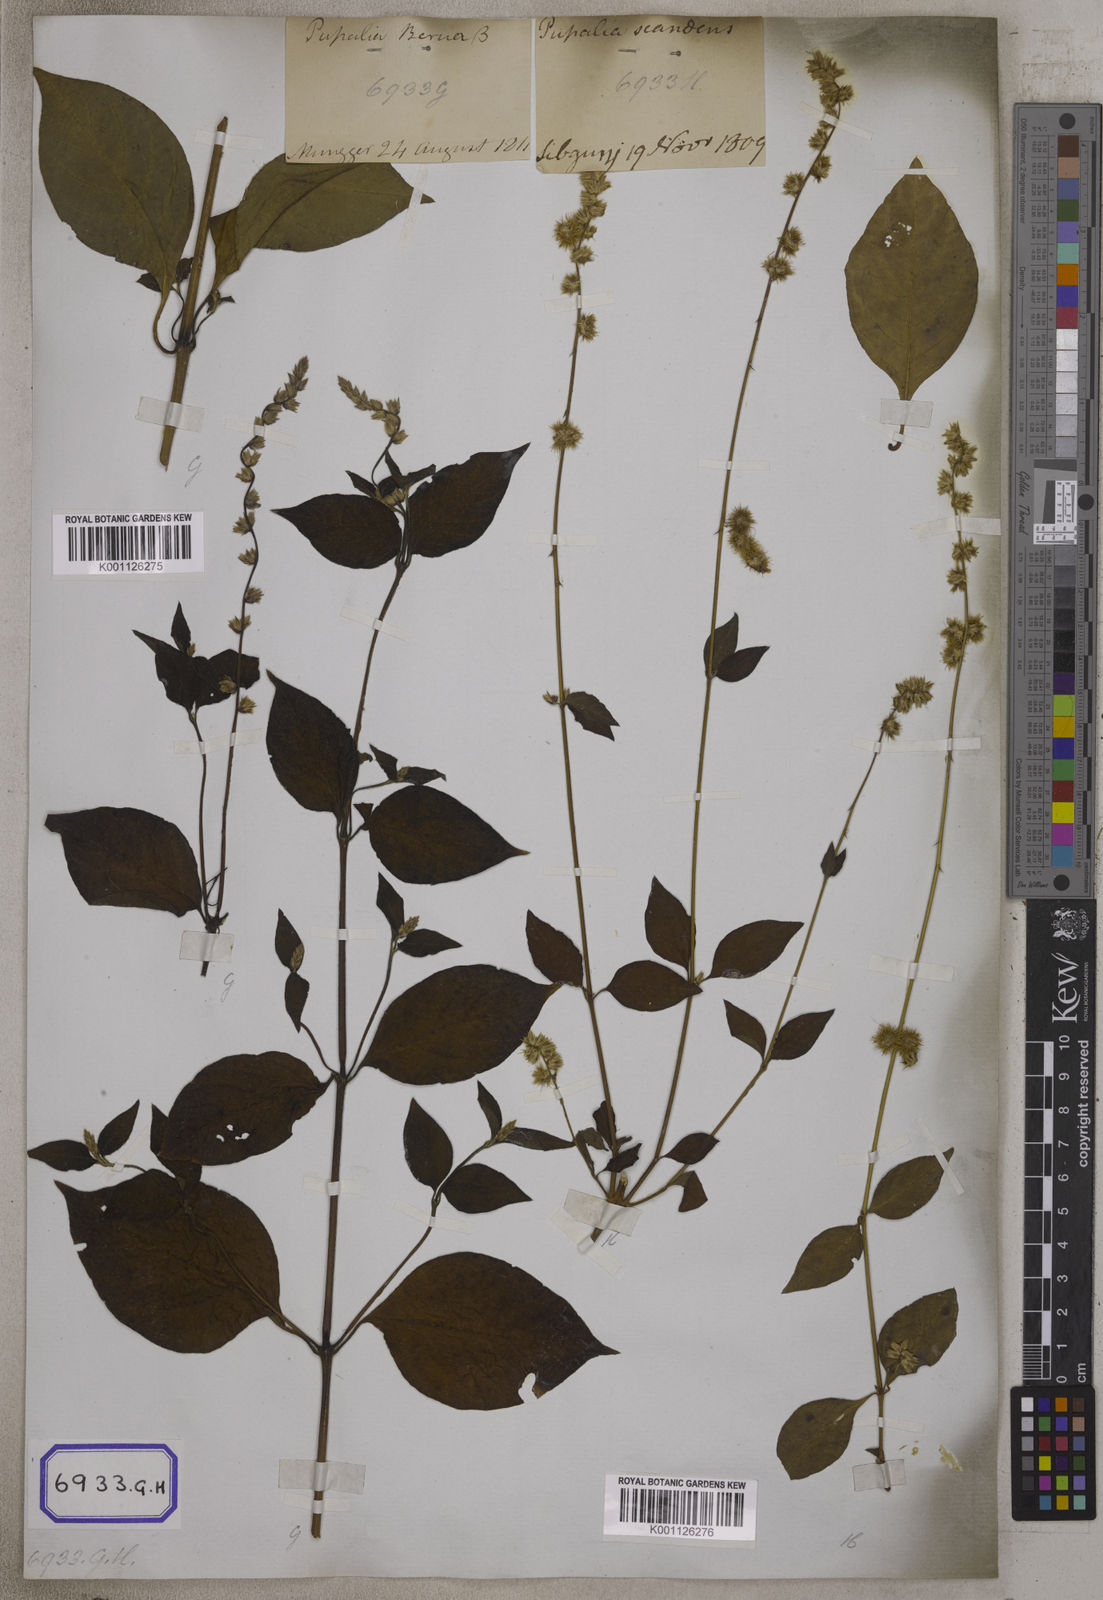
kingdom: Plantae
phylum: Tracheophyta
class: Magnoliopsida
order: Caryophyllales
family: Amaranthaceae
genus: Pupalia
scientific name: Pupalia lappacea
